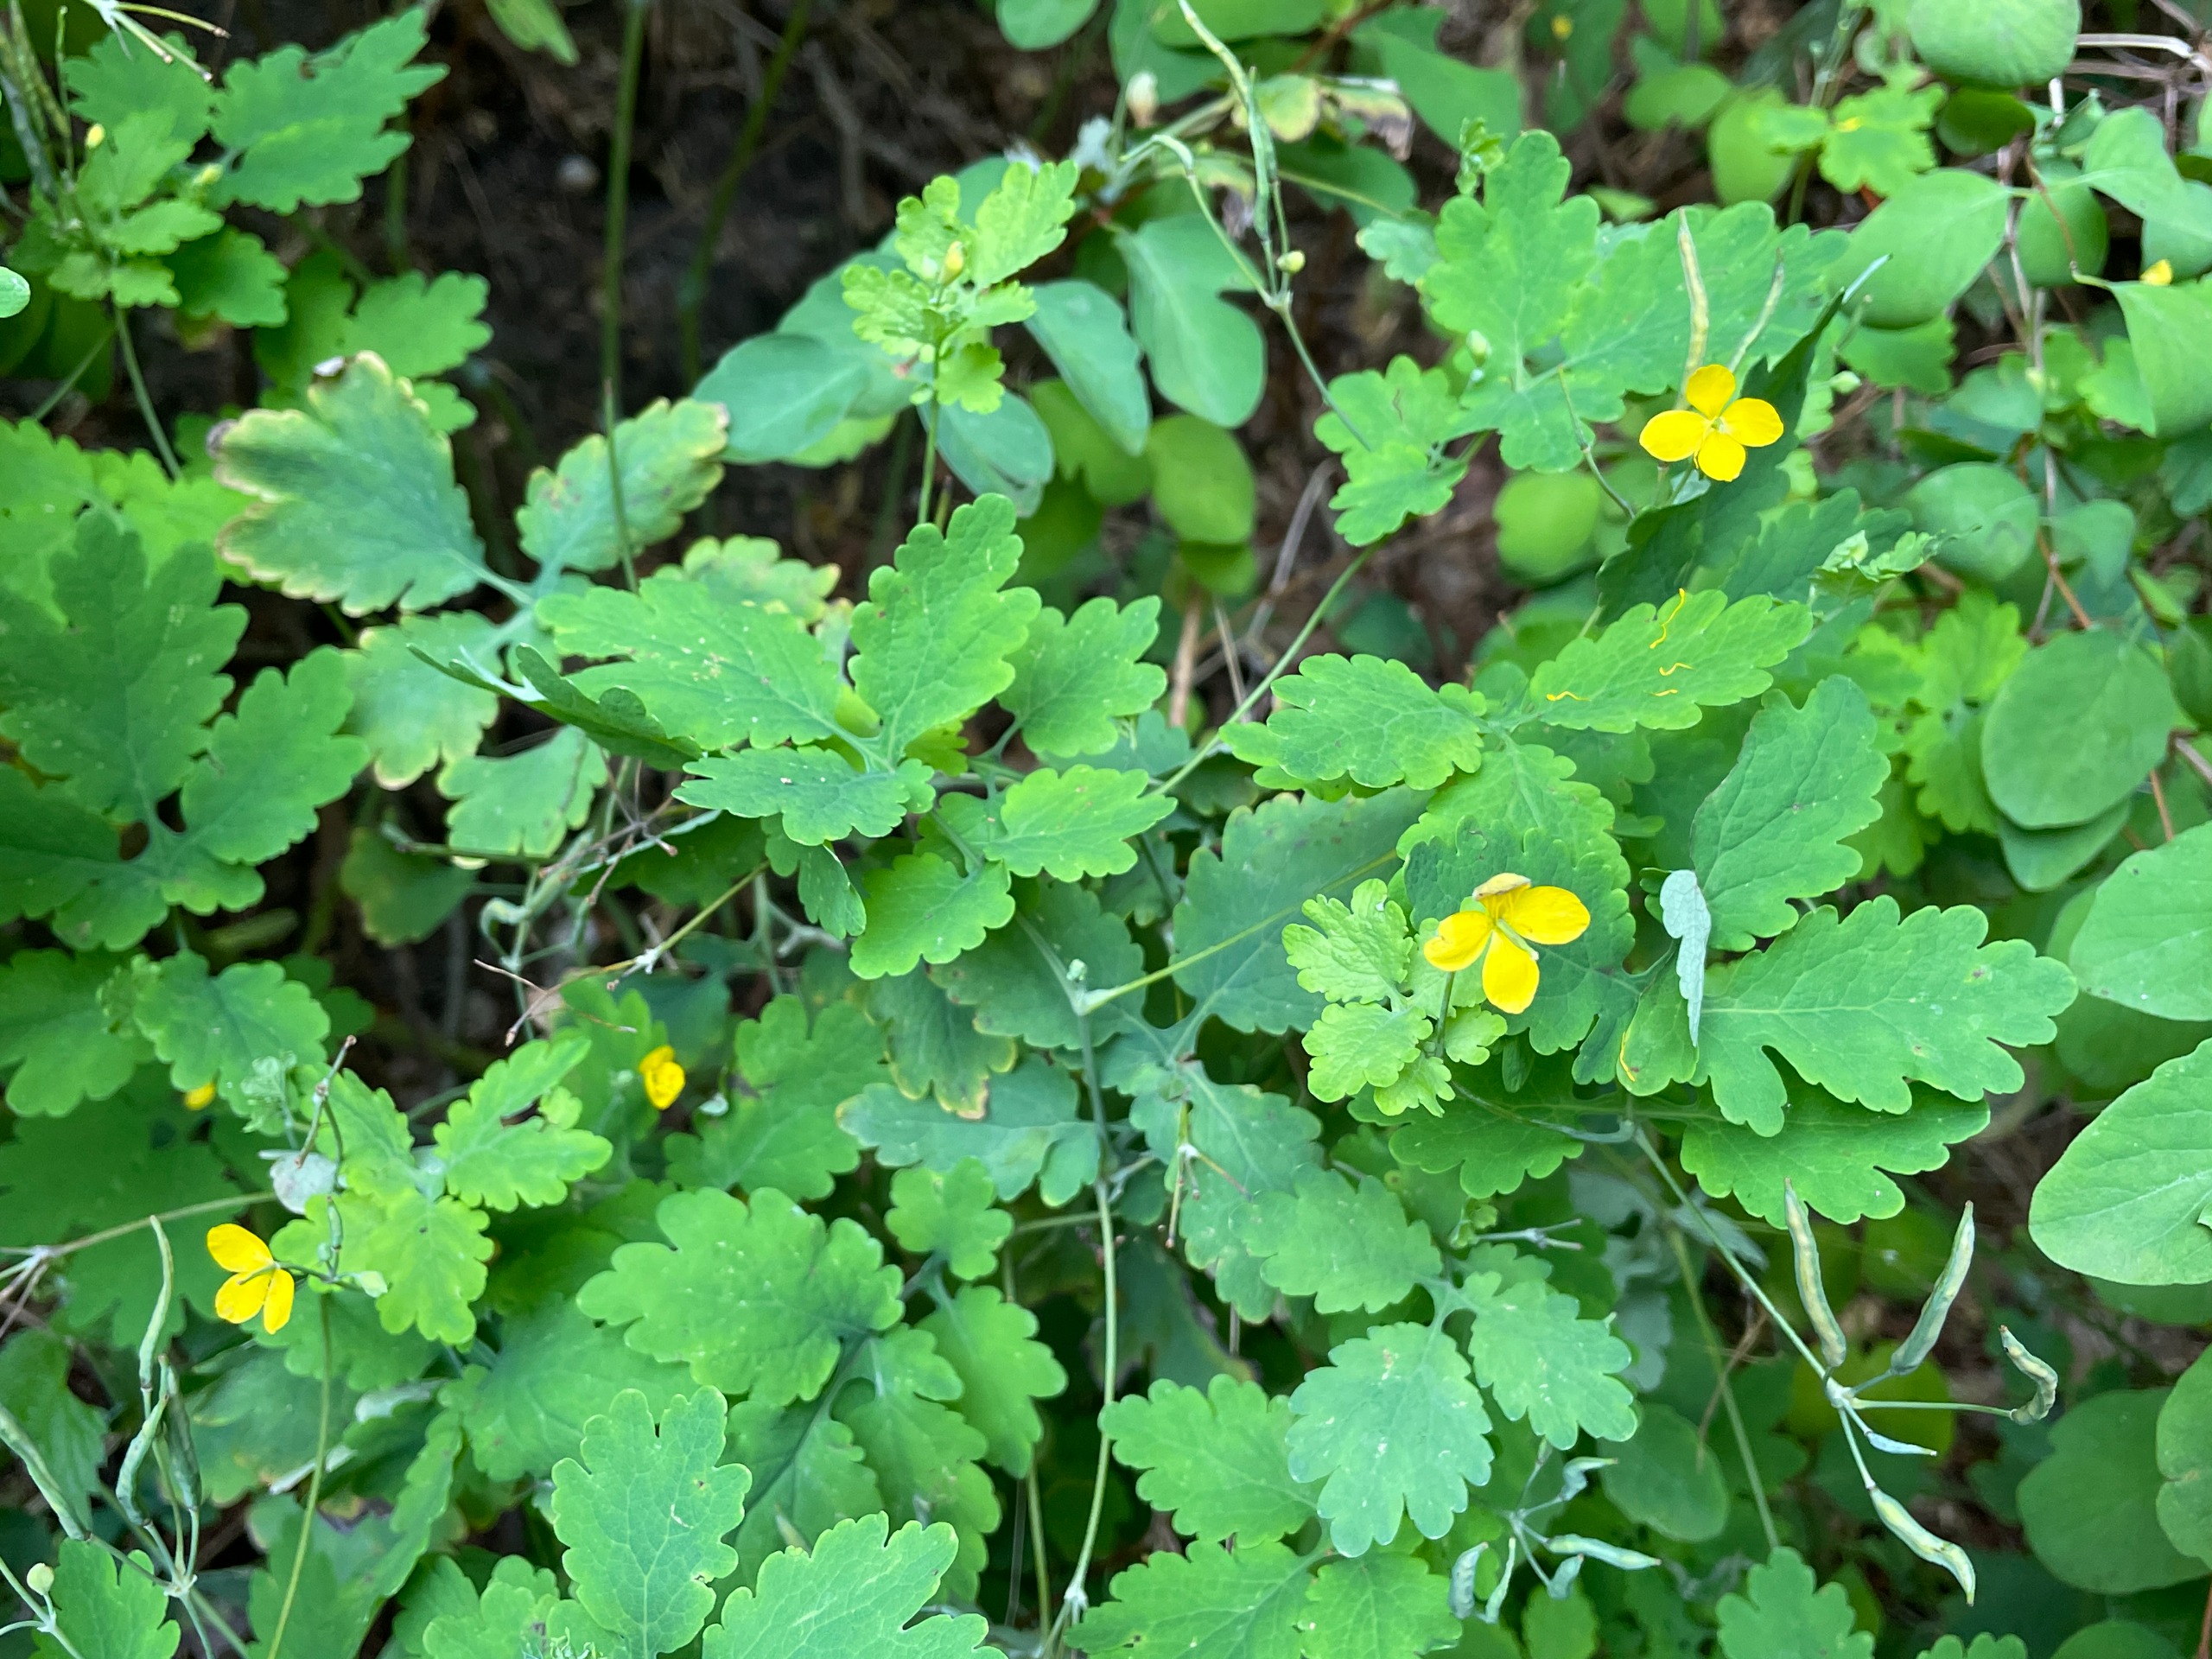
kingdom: Plantae
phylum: Tracheophyta
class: Magnoliopsida
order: Ranunculales
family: Papaveraceae
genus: Chelidonium
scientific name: Chelidonium majus
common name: Svaleurt
